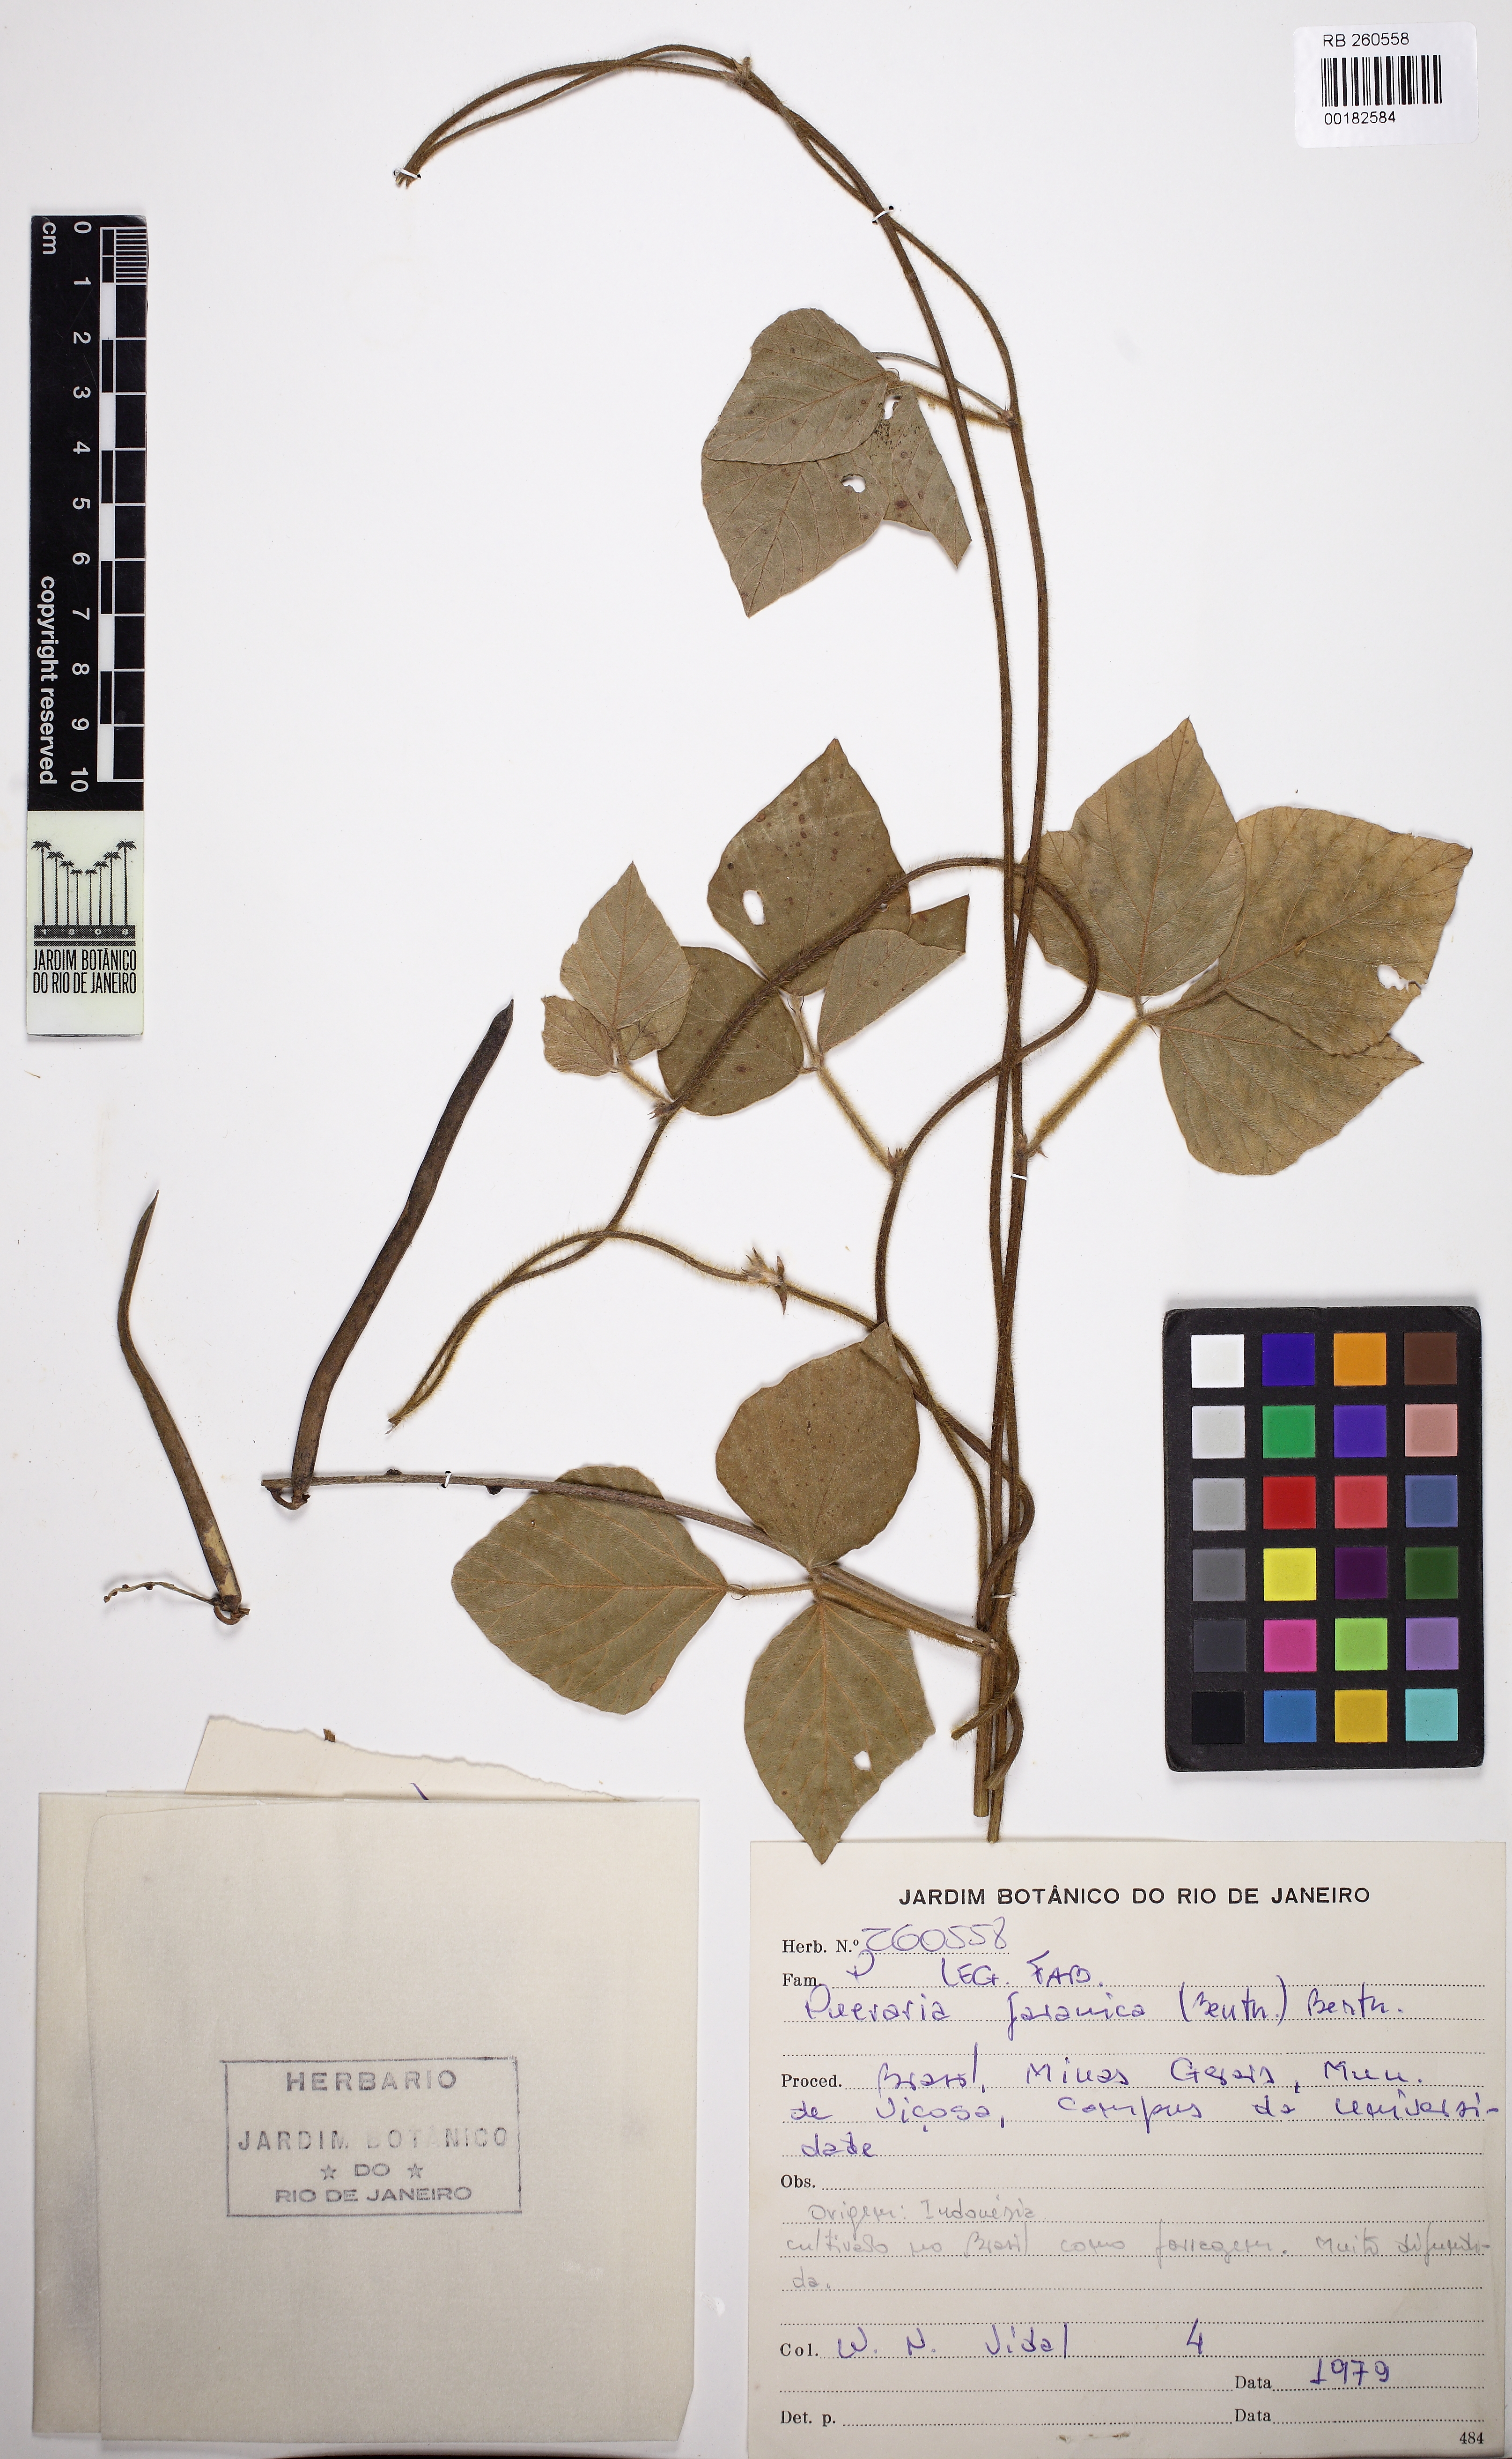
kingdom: Plantae
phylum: Tracheophyta
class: Magnoliopsida
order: Fabales
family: Fabaceae
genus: Neustanthus
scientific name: Neustanthus phaseoloides
